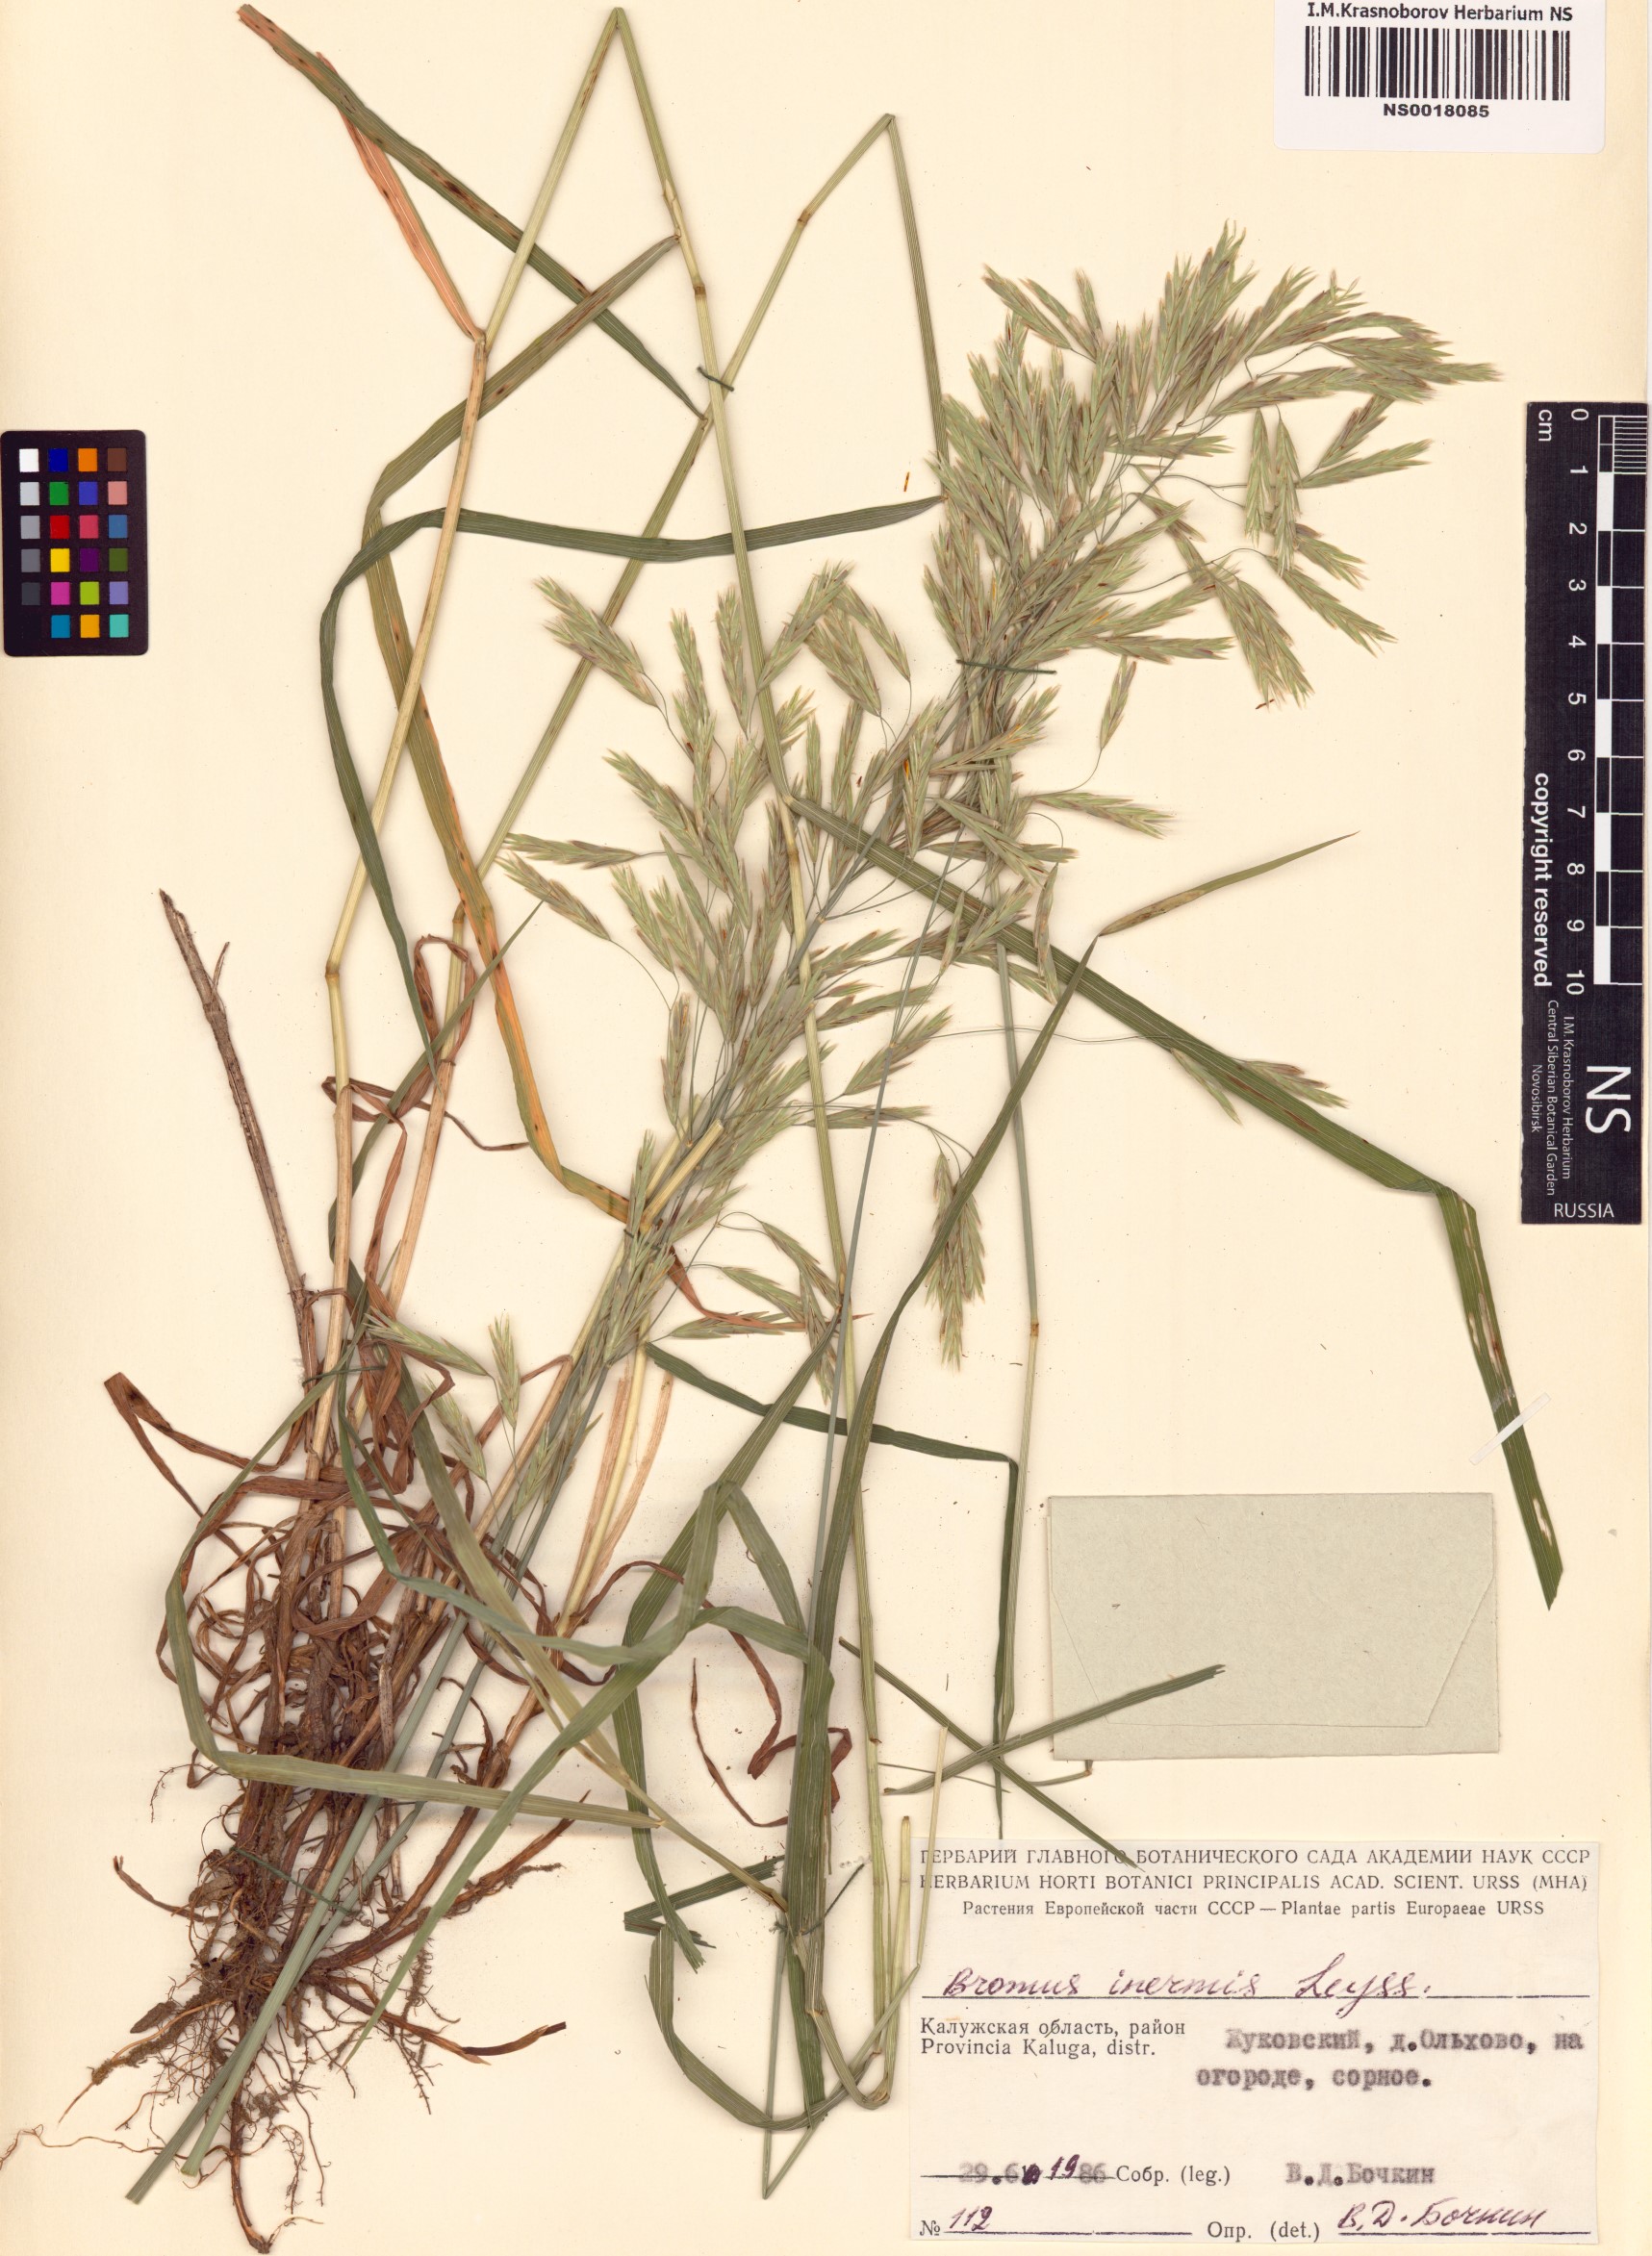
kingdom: Plantae
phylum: Tracheophyta
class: Liliopsida
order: Poales
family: Poaceae
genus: Bromus
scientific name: Bromus inermis
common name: Smooth brome
